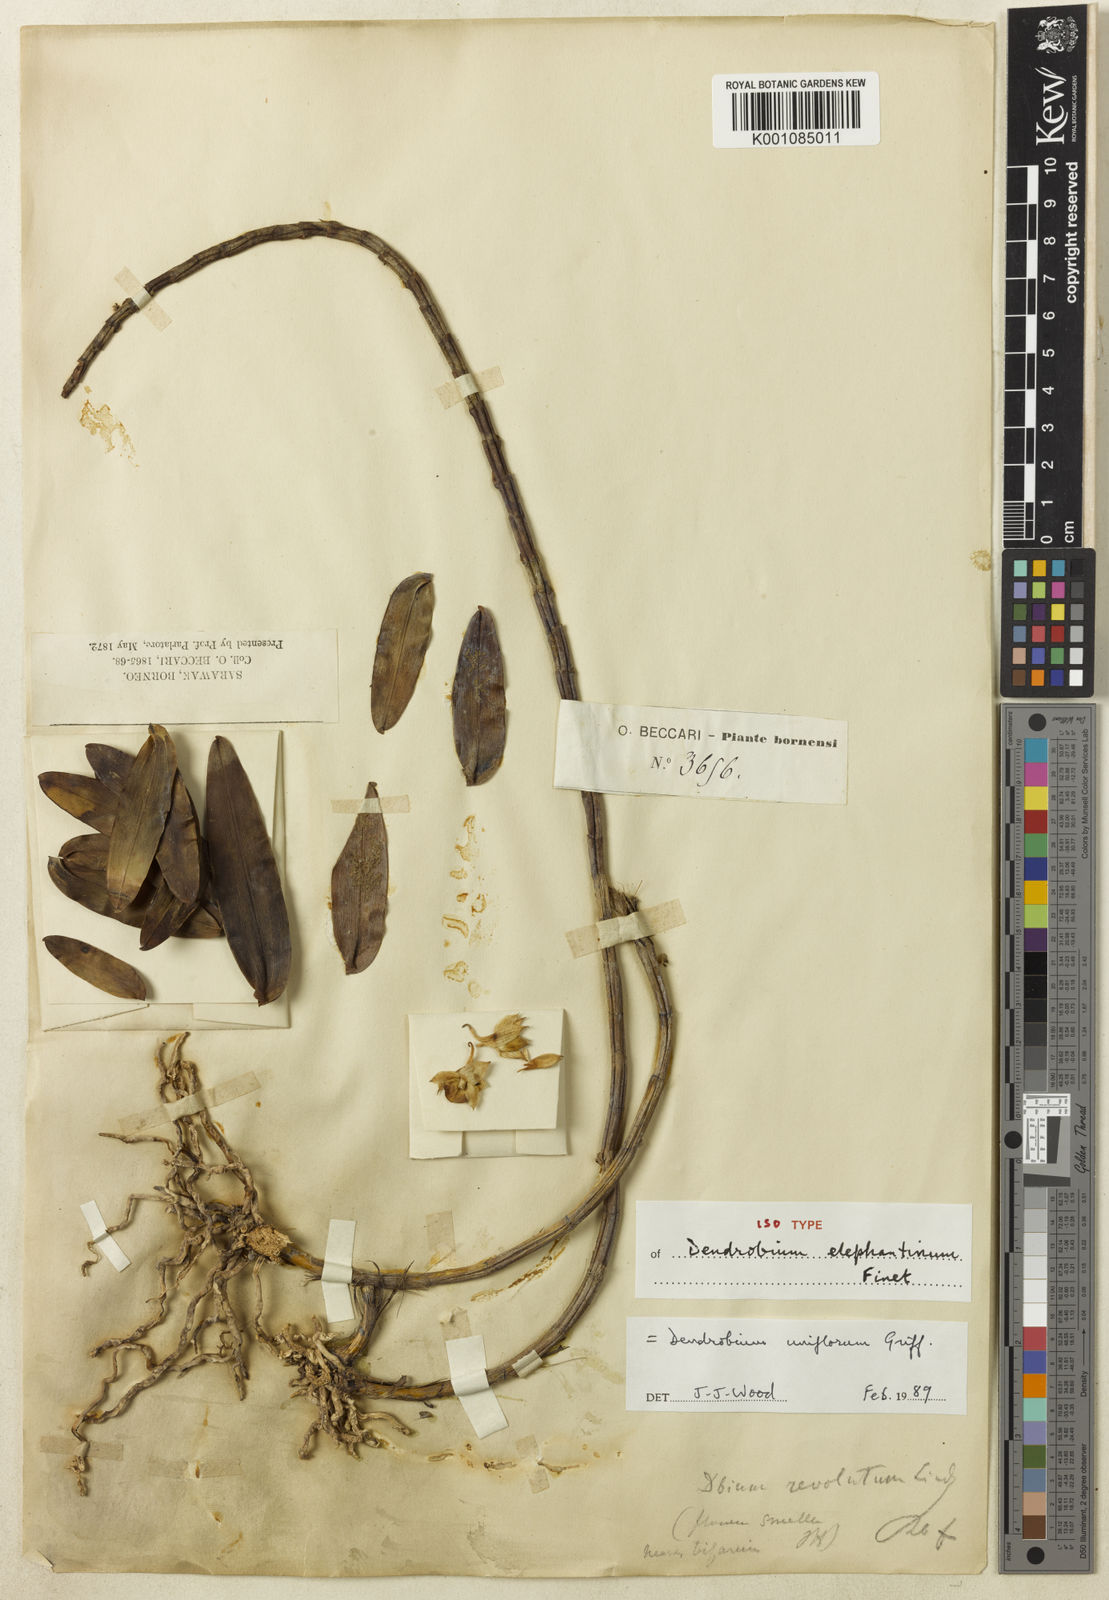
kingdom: Plantae
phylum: Tracheophyta
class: Liliopsida
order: Asparagales
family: Orchidaceae
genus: Dendrobium
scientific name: Dendrobium uniflorum
